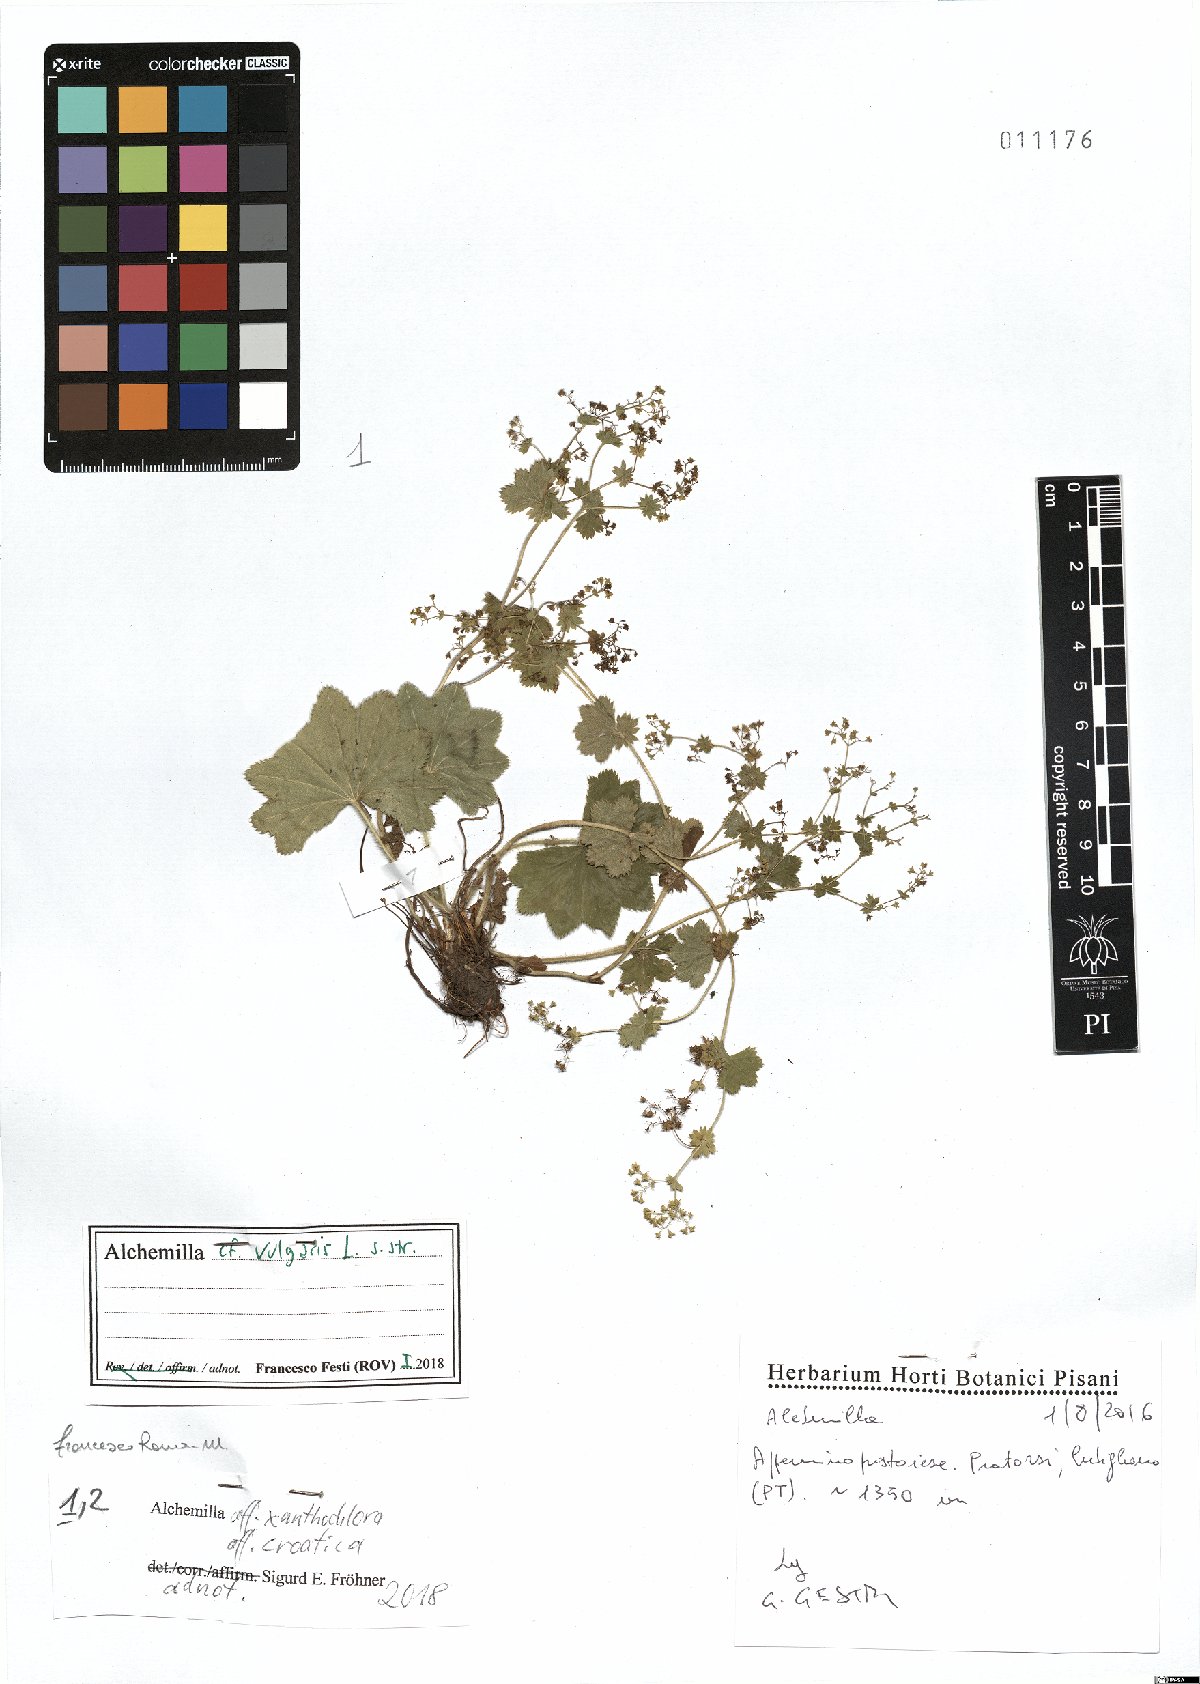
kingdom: Plantae
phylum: Tracheophyta
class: Magnoliopsida
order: Rosales
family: Rosaceae
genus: Alchemilla
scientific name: Alchemilla xanthochlora
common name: Intermediate lady's-mantle
